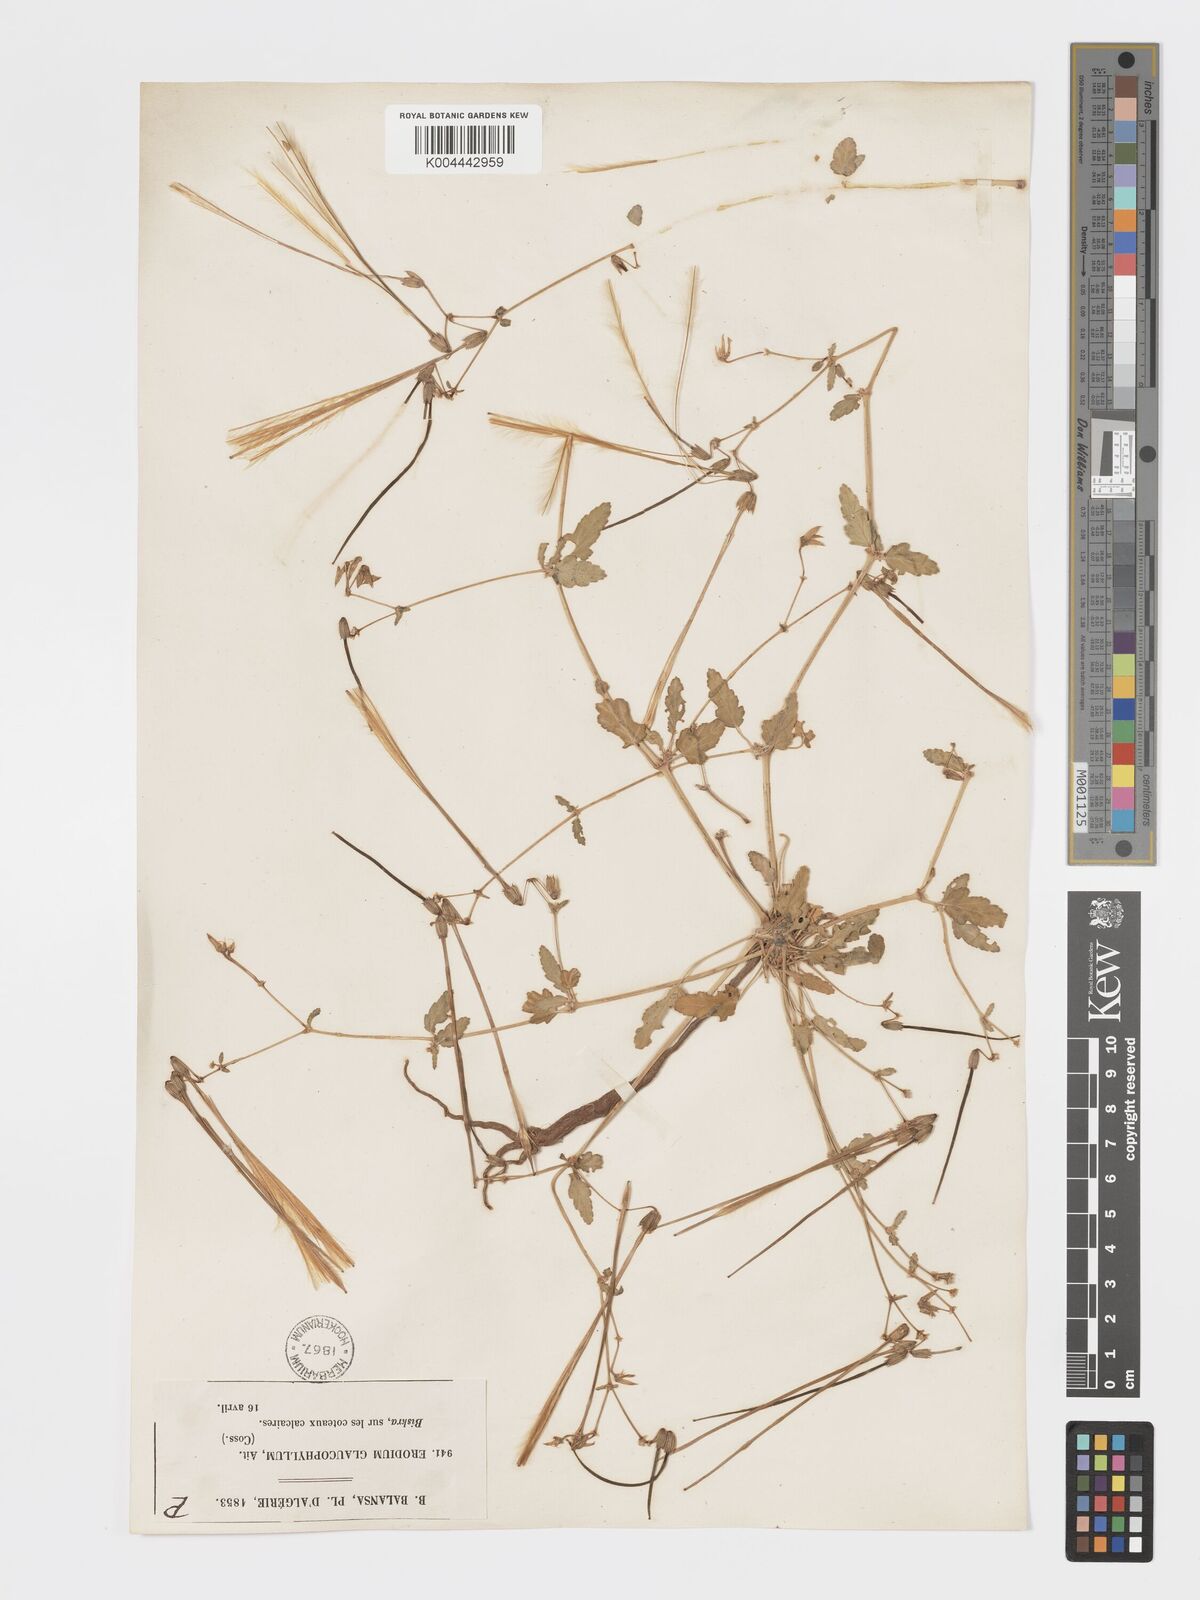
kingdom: Plantae
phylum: Tracheophyta
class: Magnoliopsida
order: Geraniales
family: Geraniaceae
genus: Erodium
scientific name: Erodium glaucophyllum
